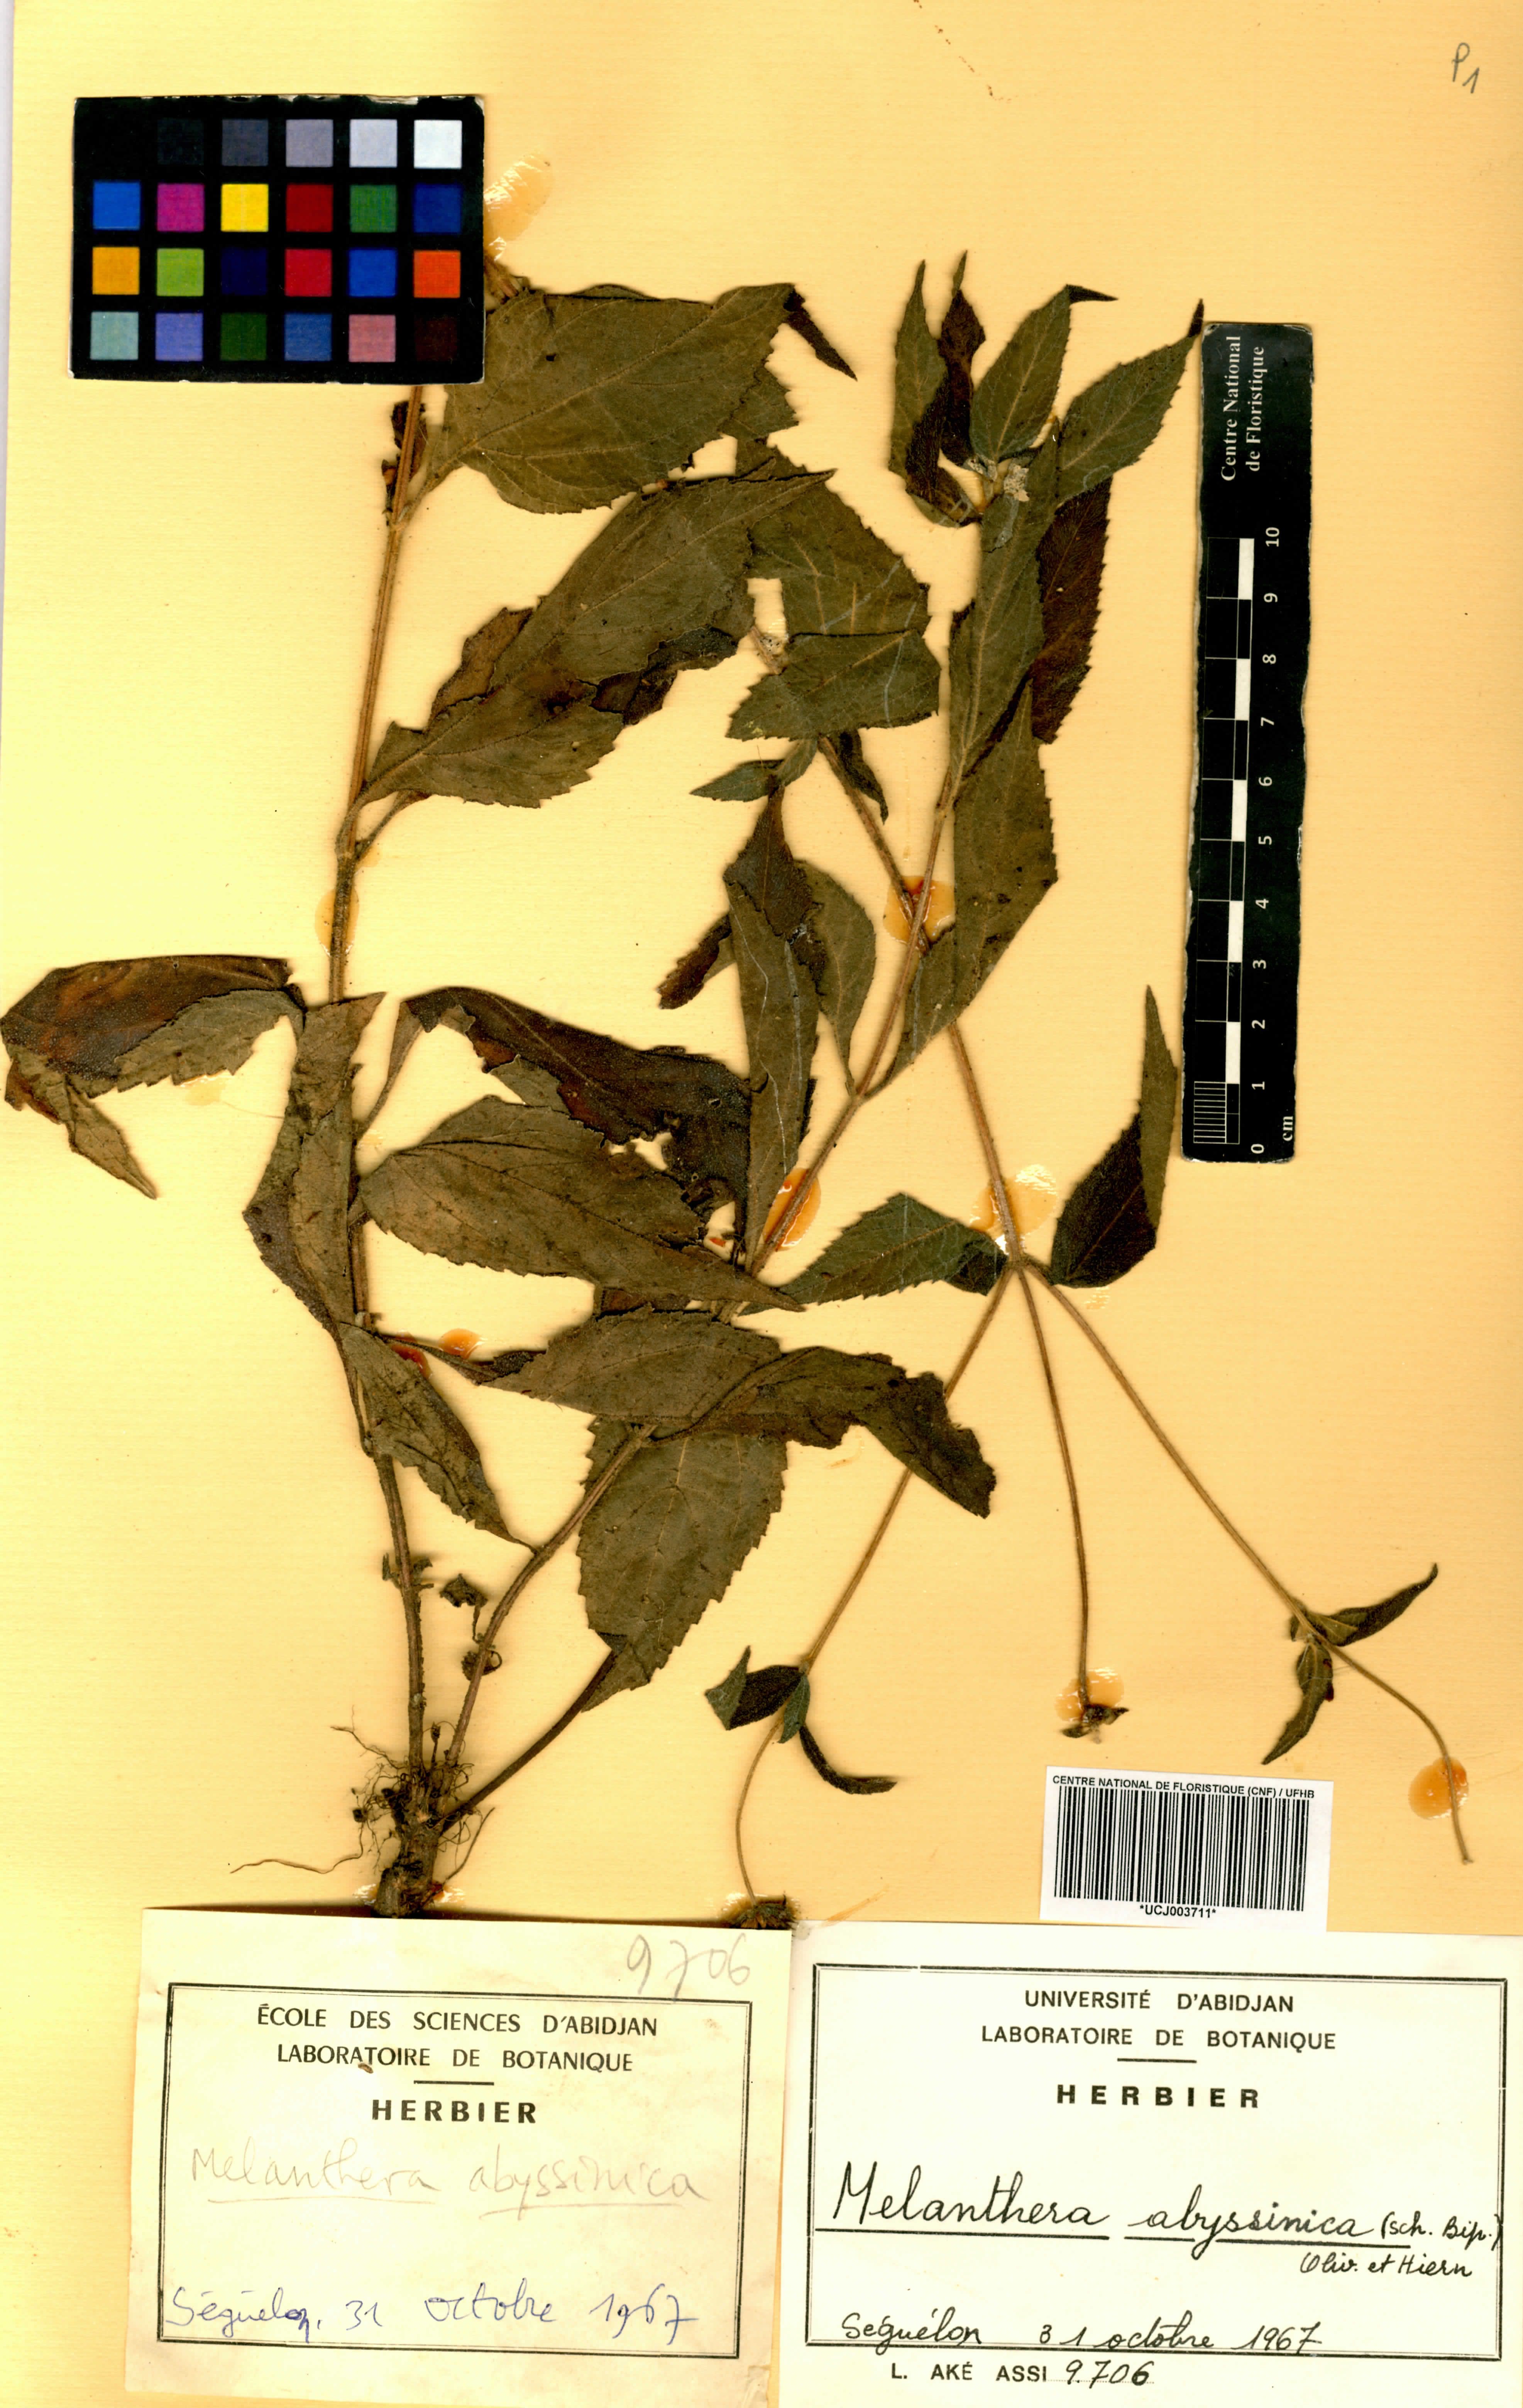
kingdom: Plantae
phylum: Tracheophyta
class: Magnoliopsida
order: Asterales
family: Asteraceae
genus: Lipotriche
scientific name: Lipotriche abyssinica
